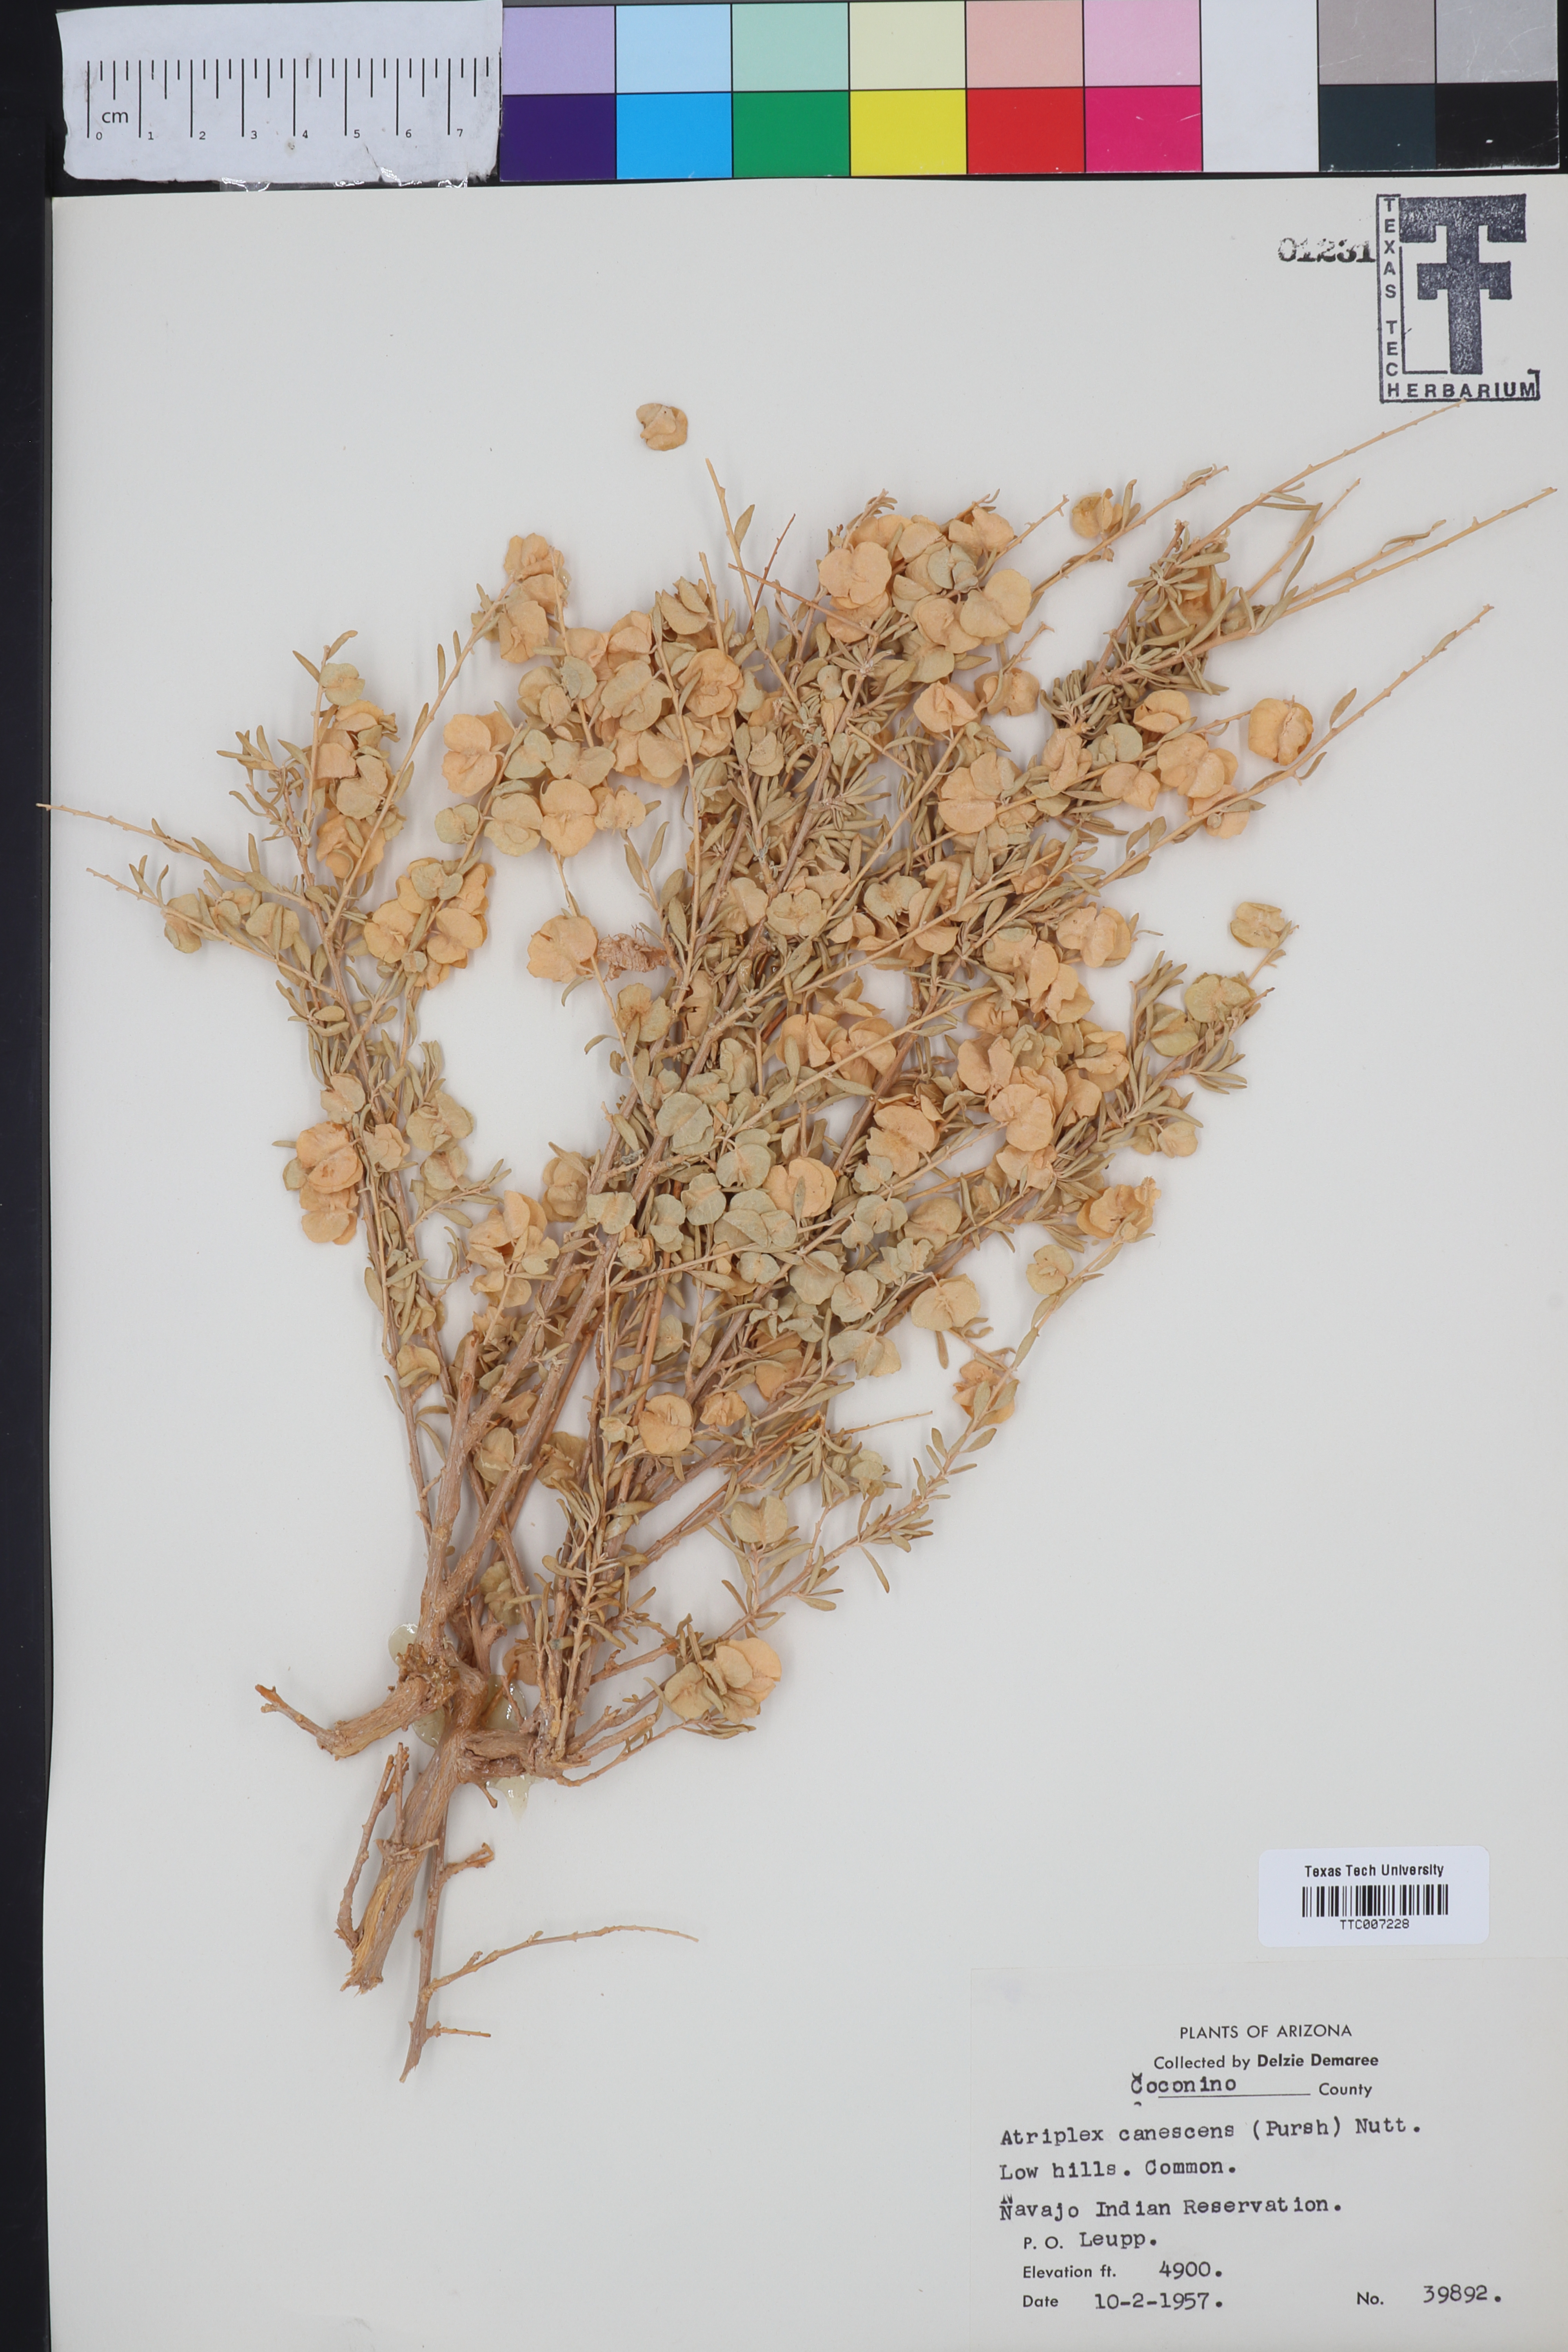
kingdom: Plantae
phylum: Tracheophyta
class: Magnoliopsida
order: Caryophyllales
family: Amaranthaceae
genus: Atriplex
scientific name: Atriplex canescens
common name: Four-wing saltbush
